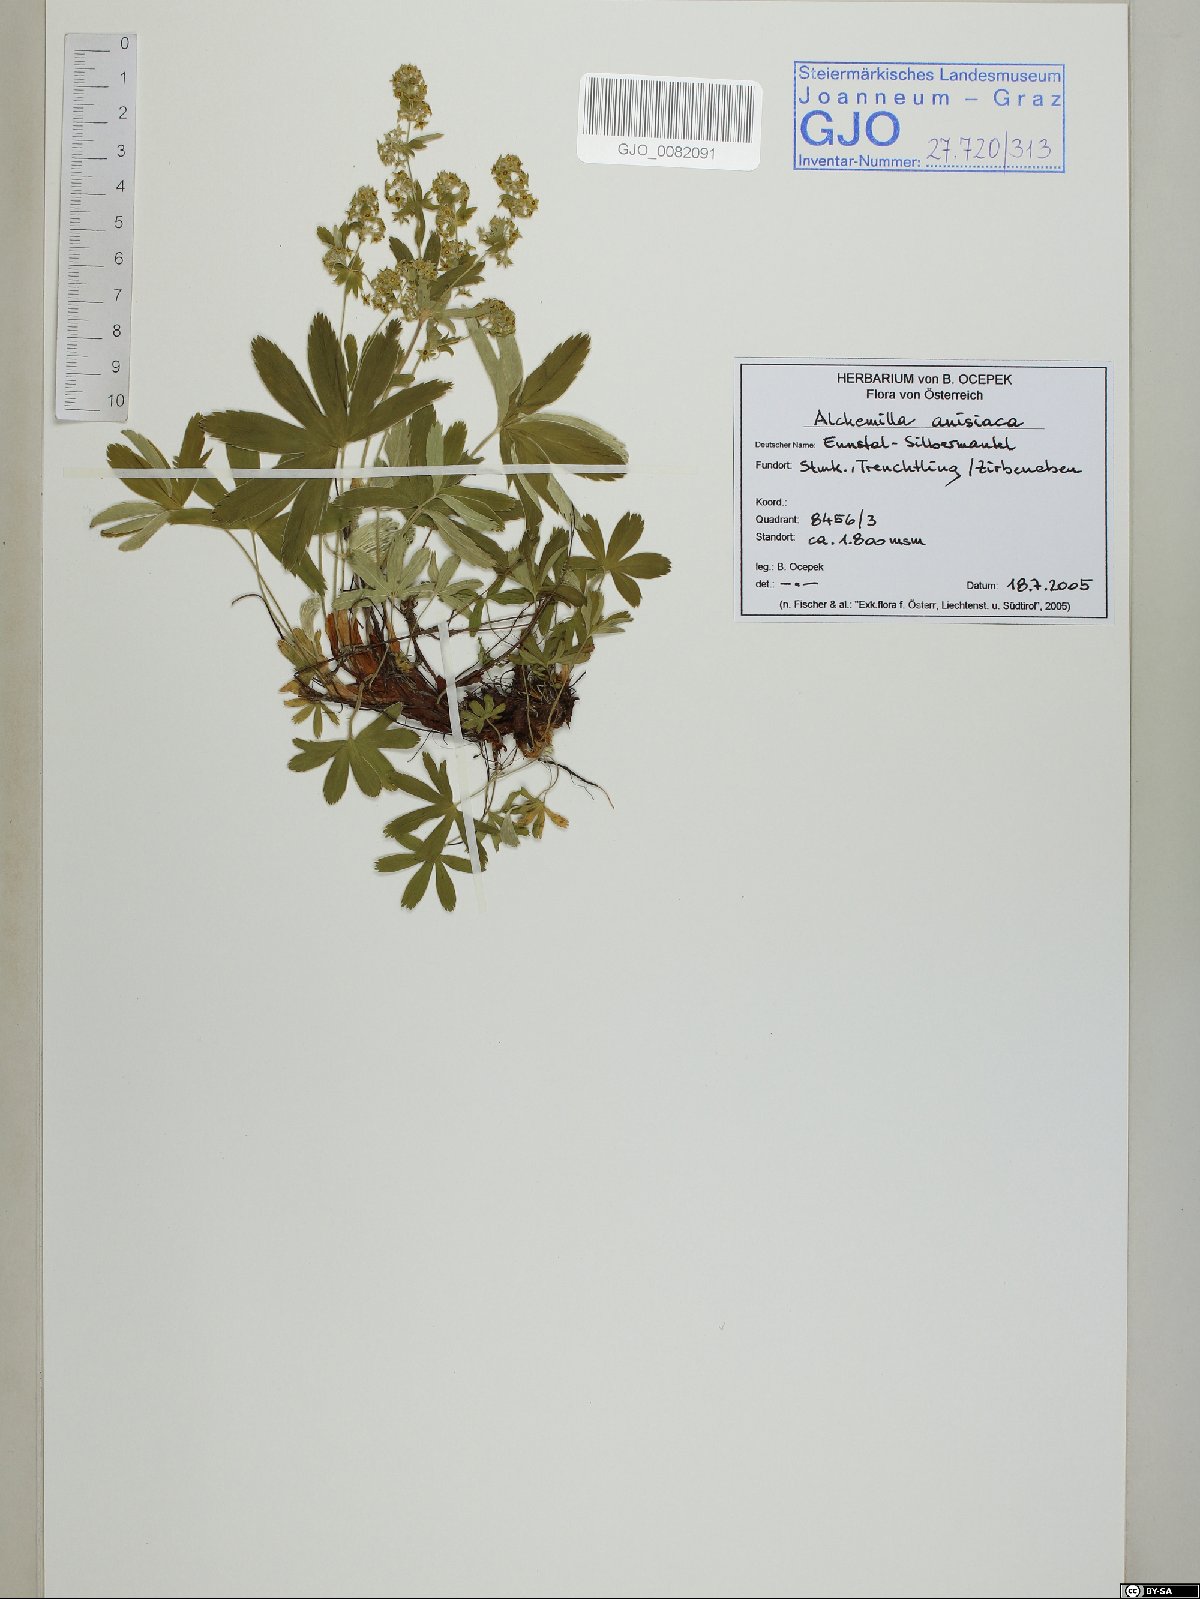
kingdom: Plantae
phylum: Tracheophyta
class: Magnoliopsida
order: Rosales
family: Rosaceae
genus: Alchemilla
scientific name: Alchemilla anisiaca
